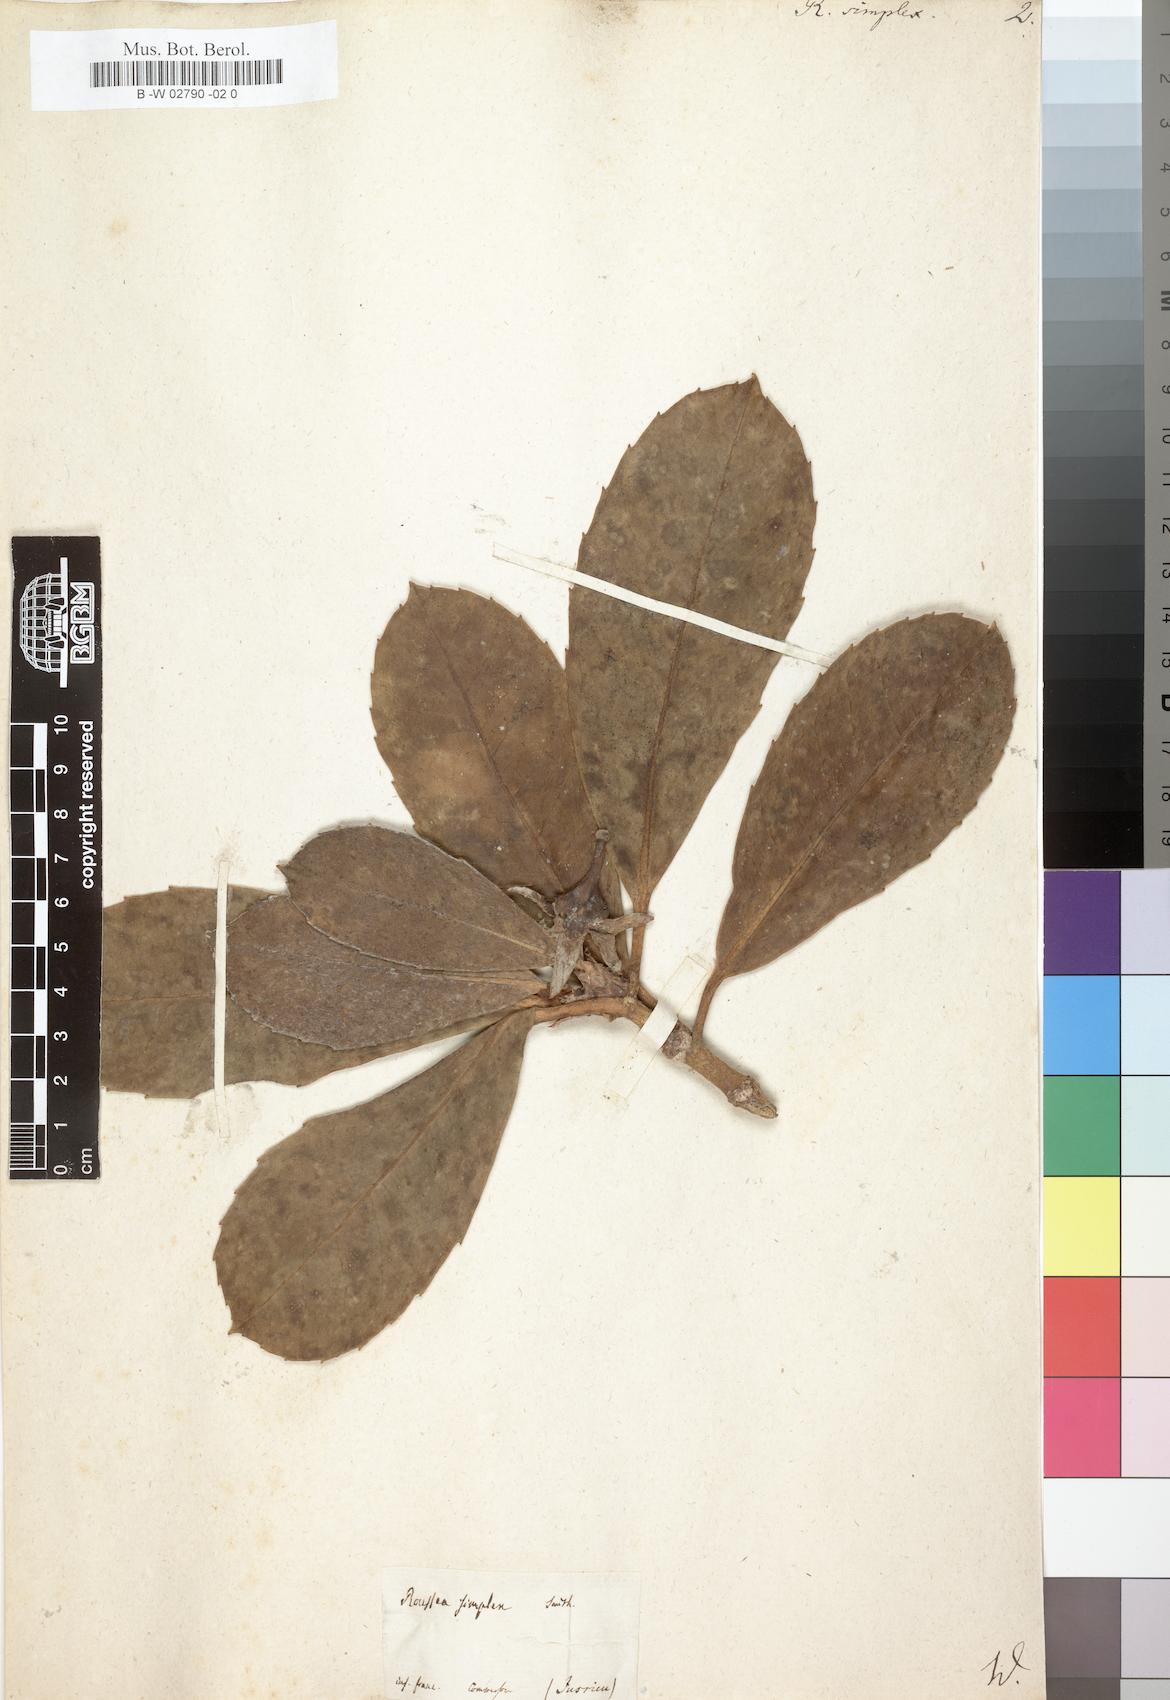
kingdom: Plantae
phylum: Tracheophyta
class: Magnoliopsida
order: Asterales
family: Rousseaceae
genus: Roussea
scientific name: Roussea simplex
